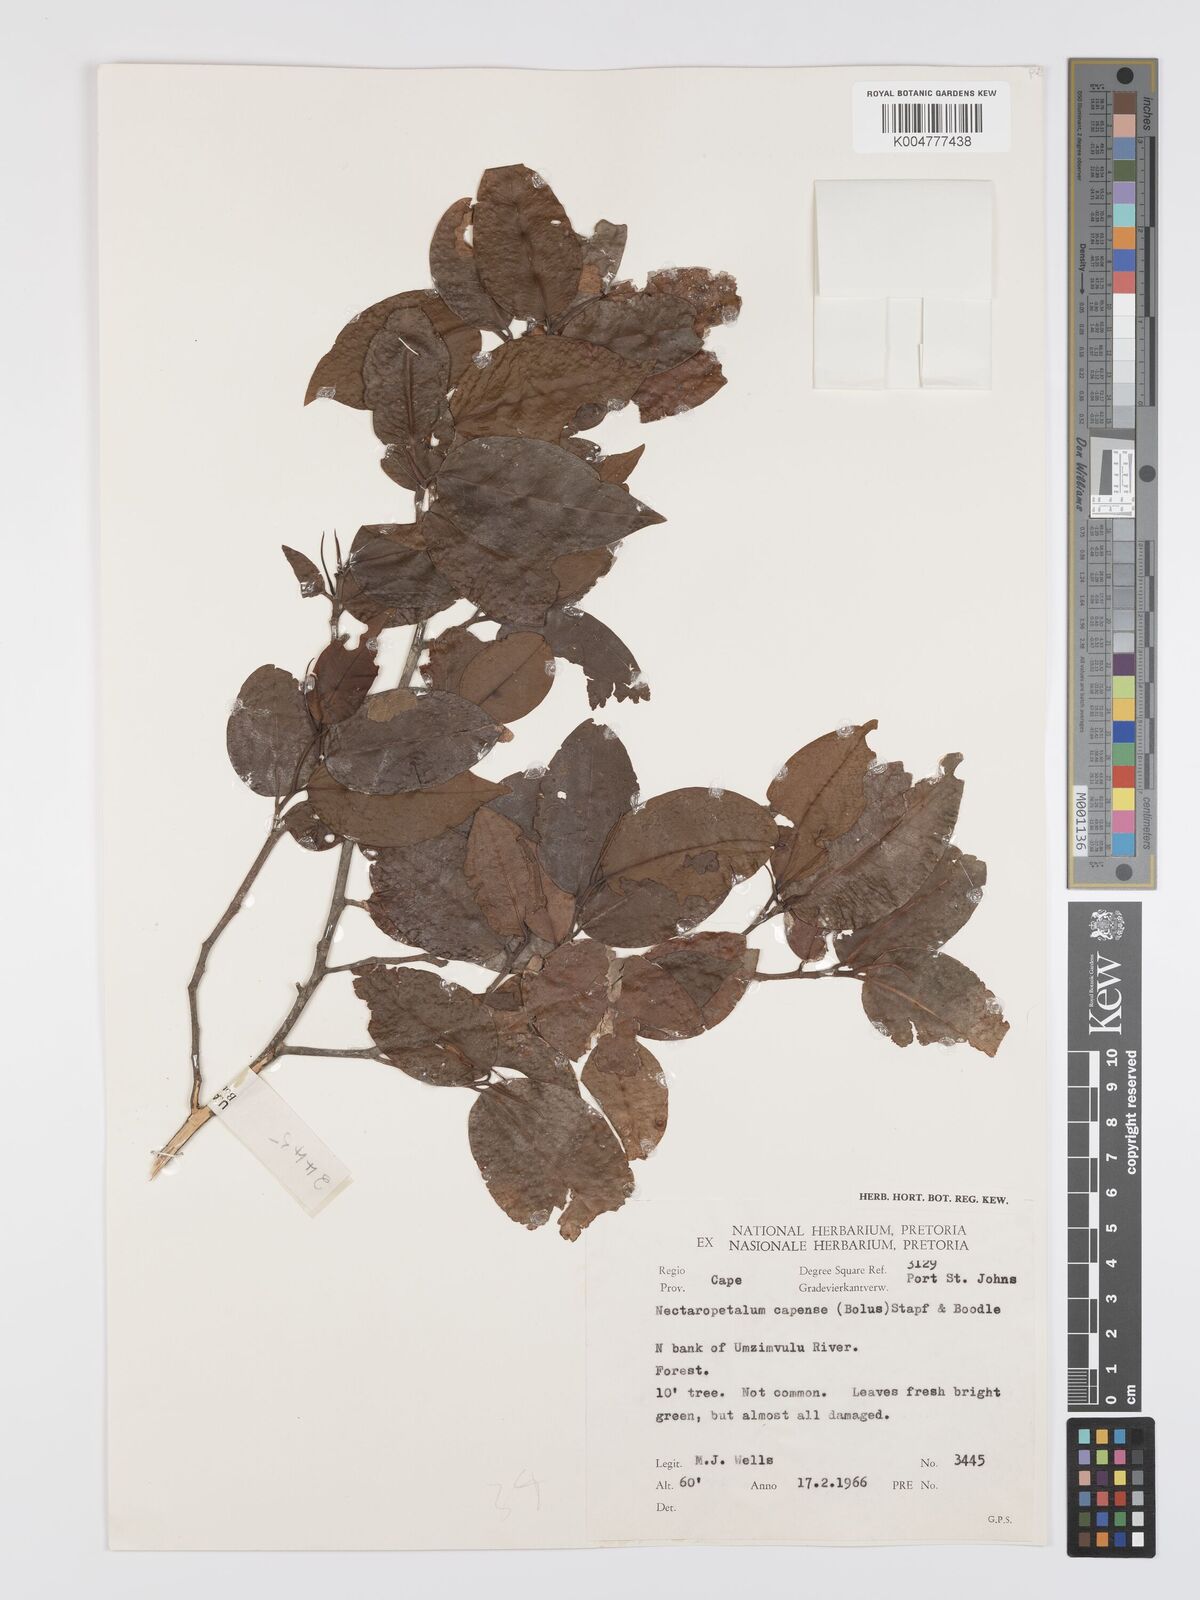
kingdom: Plantae
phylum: Tracheophyta
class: Magnoliopsida
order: Malpighiales
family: Erythroxylaceae
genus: Nectaropetalum
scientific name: Nectaropetalum capense
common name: Southern false coca-tree
